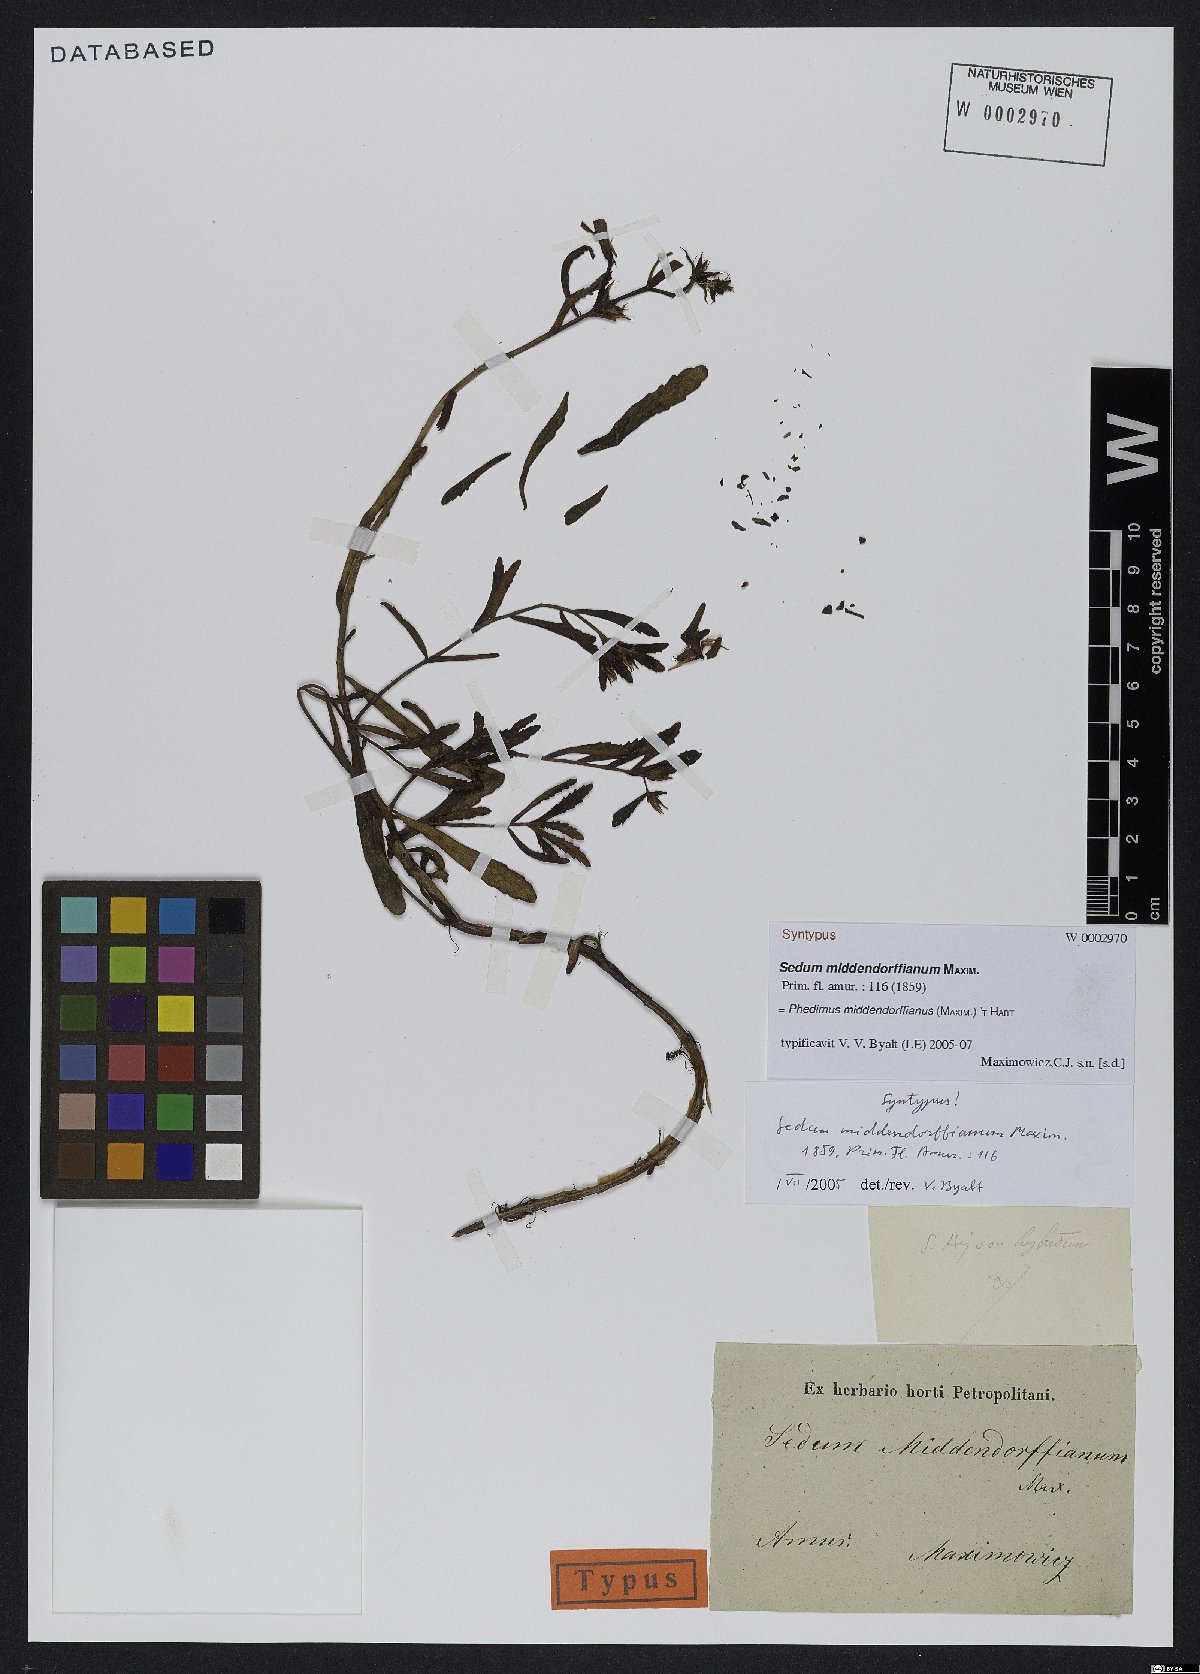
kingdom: Plantae
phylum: Tracheophyta
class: Magnoliopsida
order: Saxifragales
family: Crassulaceae
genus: Phedimus
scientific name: Phedimus middendorfianus
